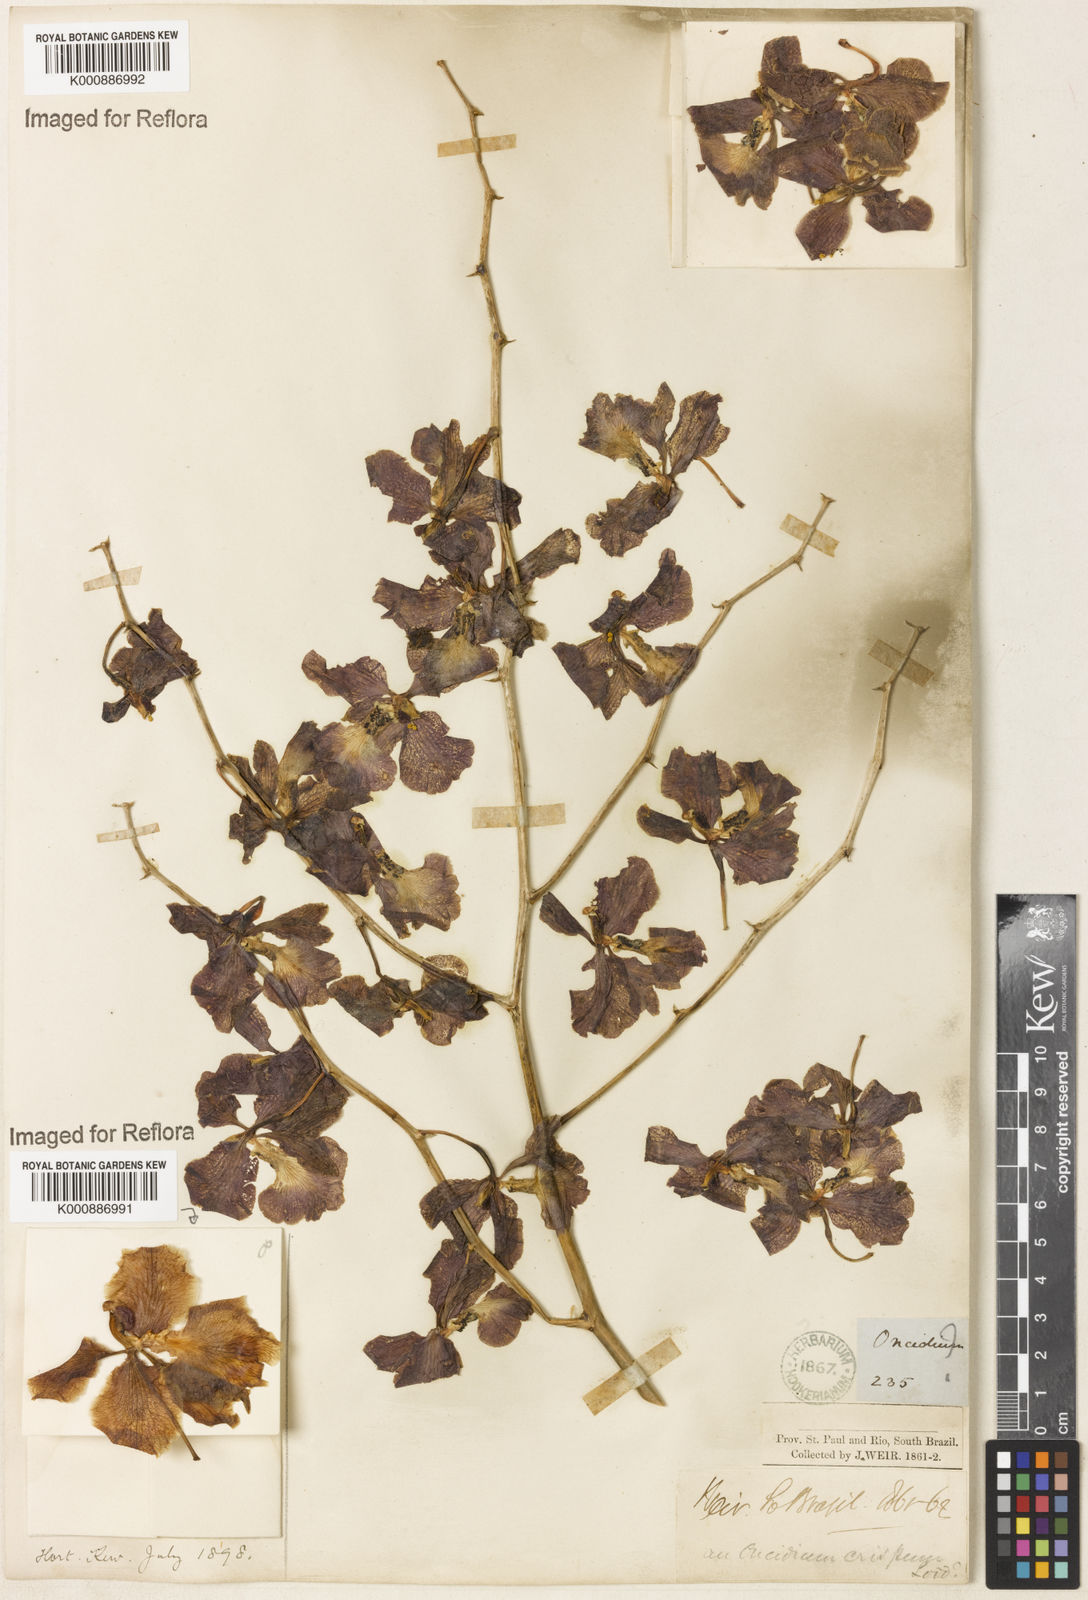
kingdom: Plantae
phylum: Tracheophyta
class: Liliopsida
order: Asparagales
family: Orchidaceae
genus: Gomesa
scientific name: Gomesa imperatoris-maximiliani
